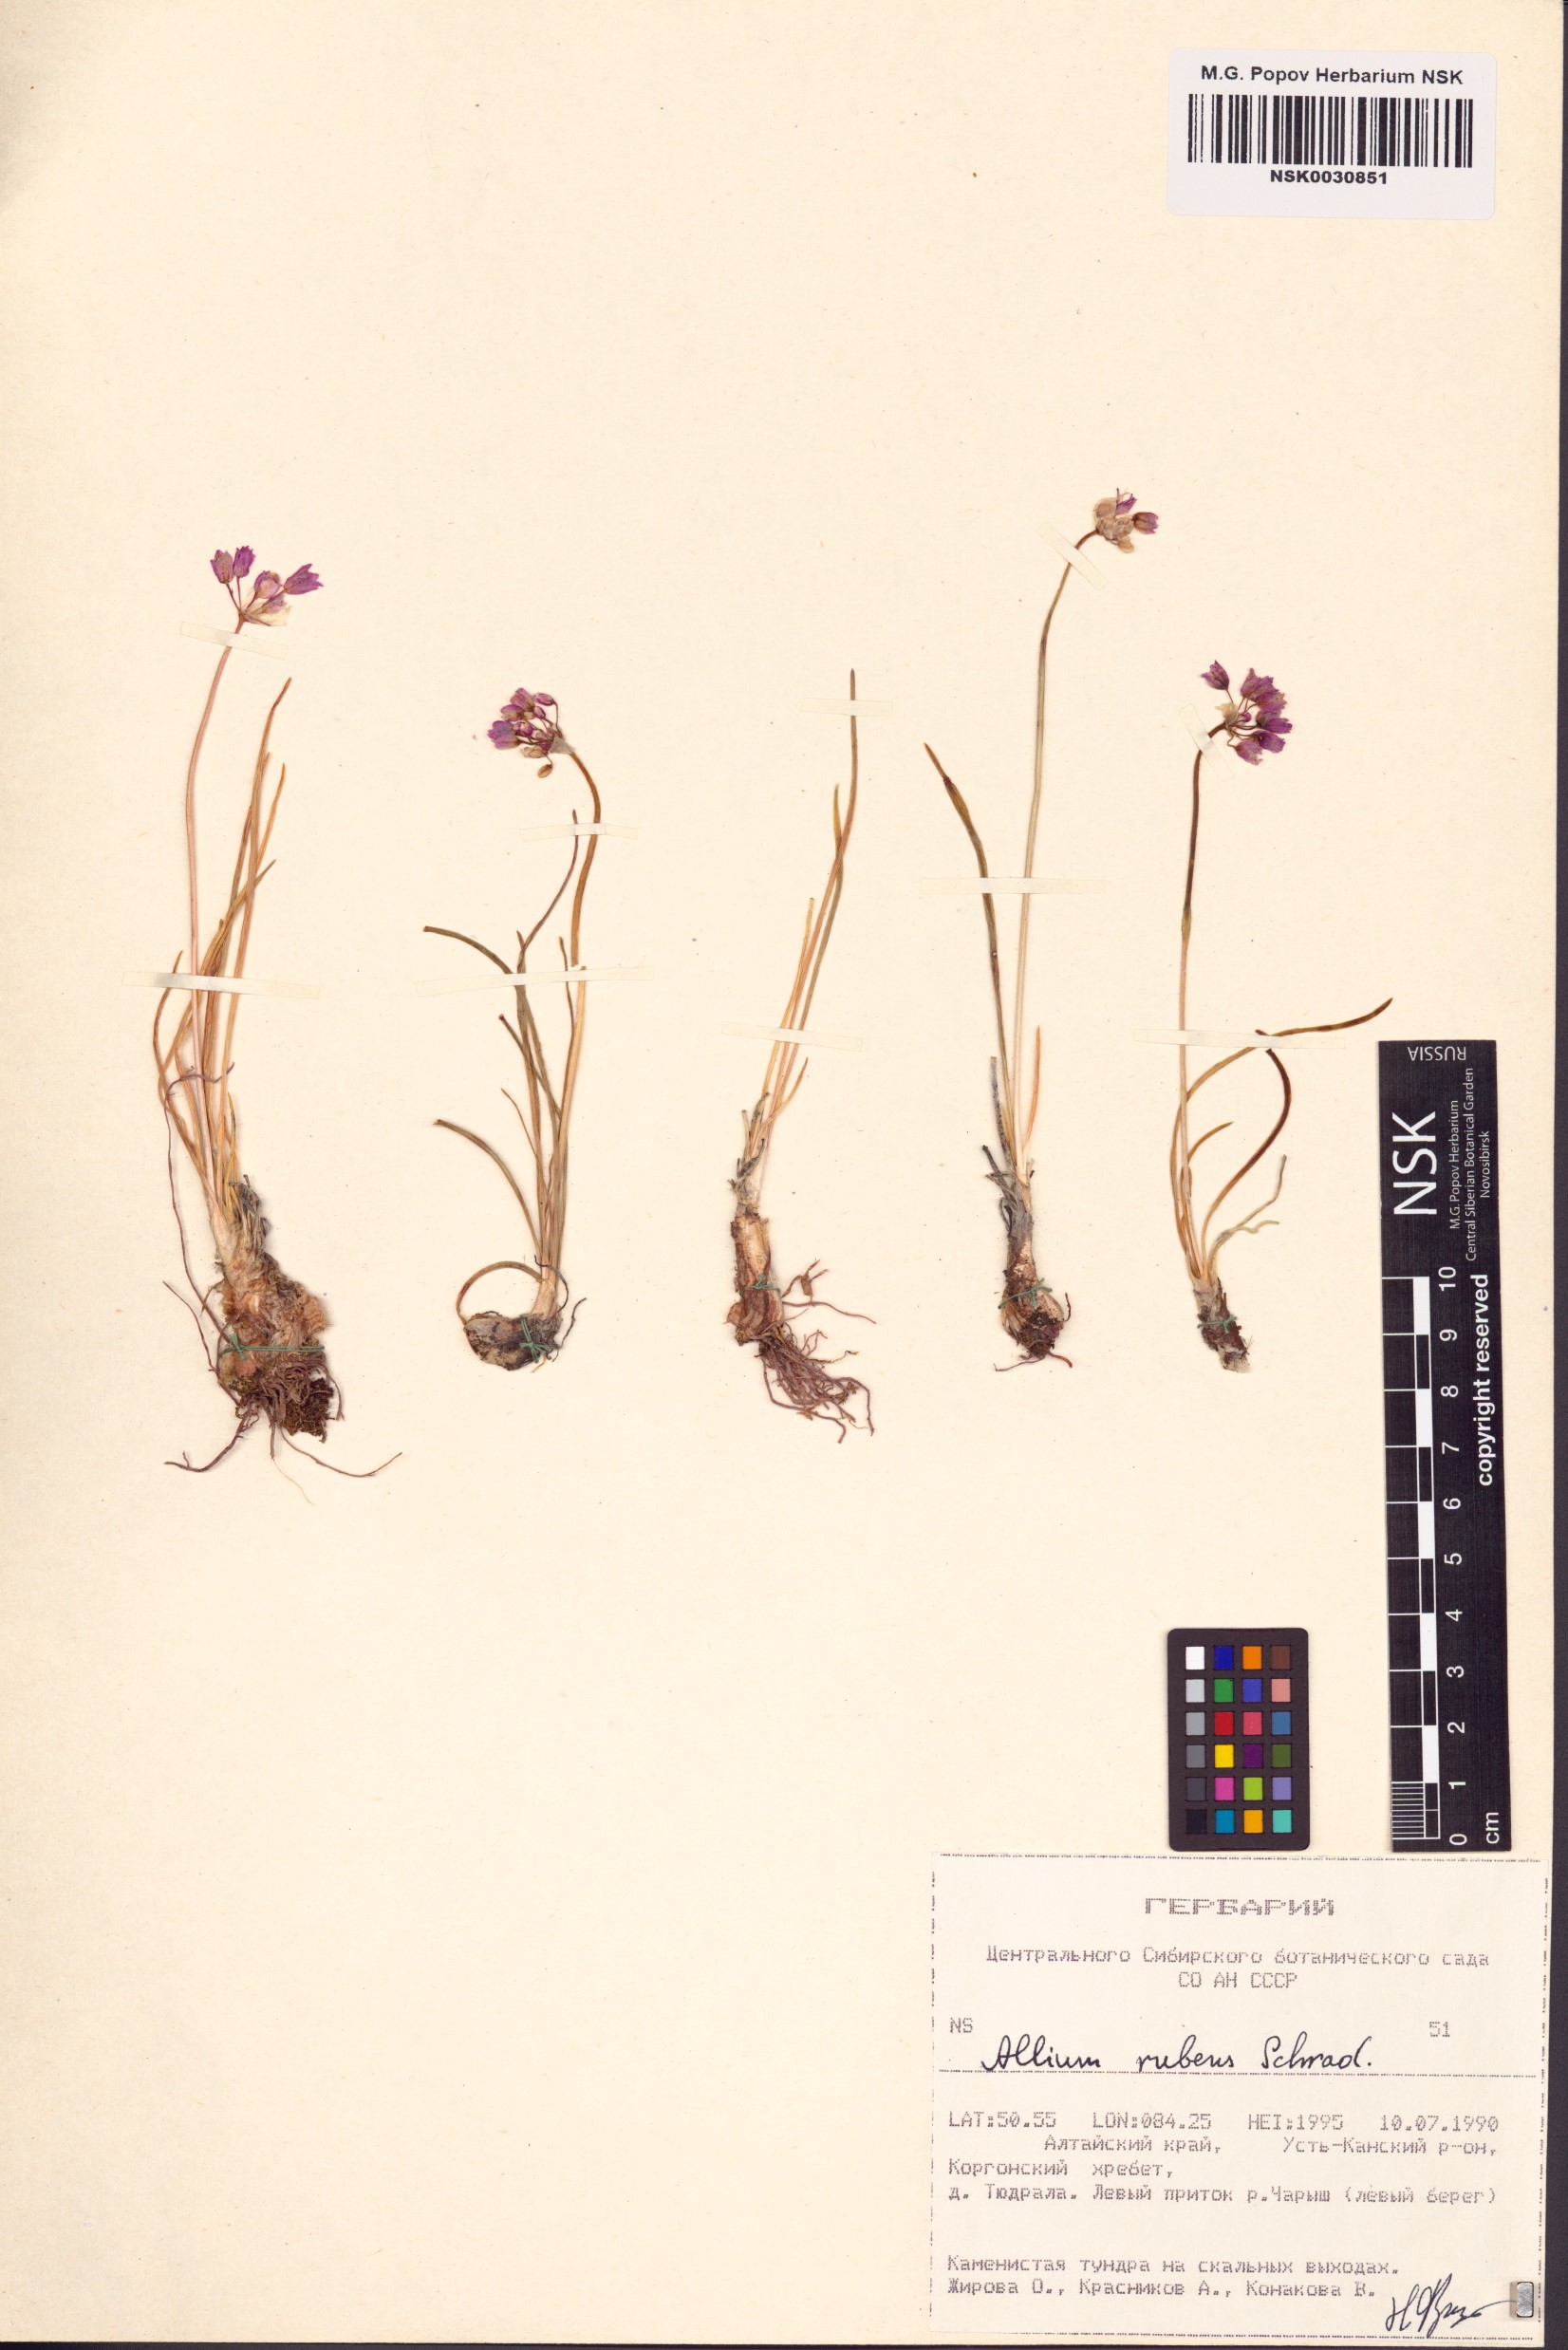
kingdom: Plantae
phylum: Tracheophyta
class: Liliopsida
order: Asparagales
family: Amaryllidaceae
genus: Allium
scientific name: Allium rubens
